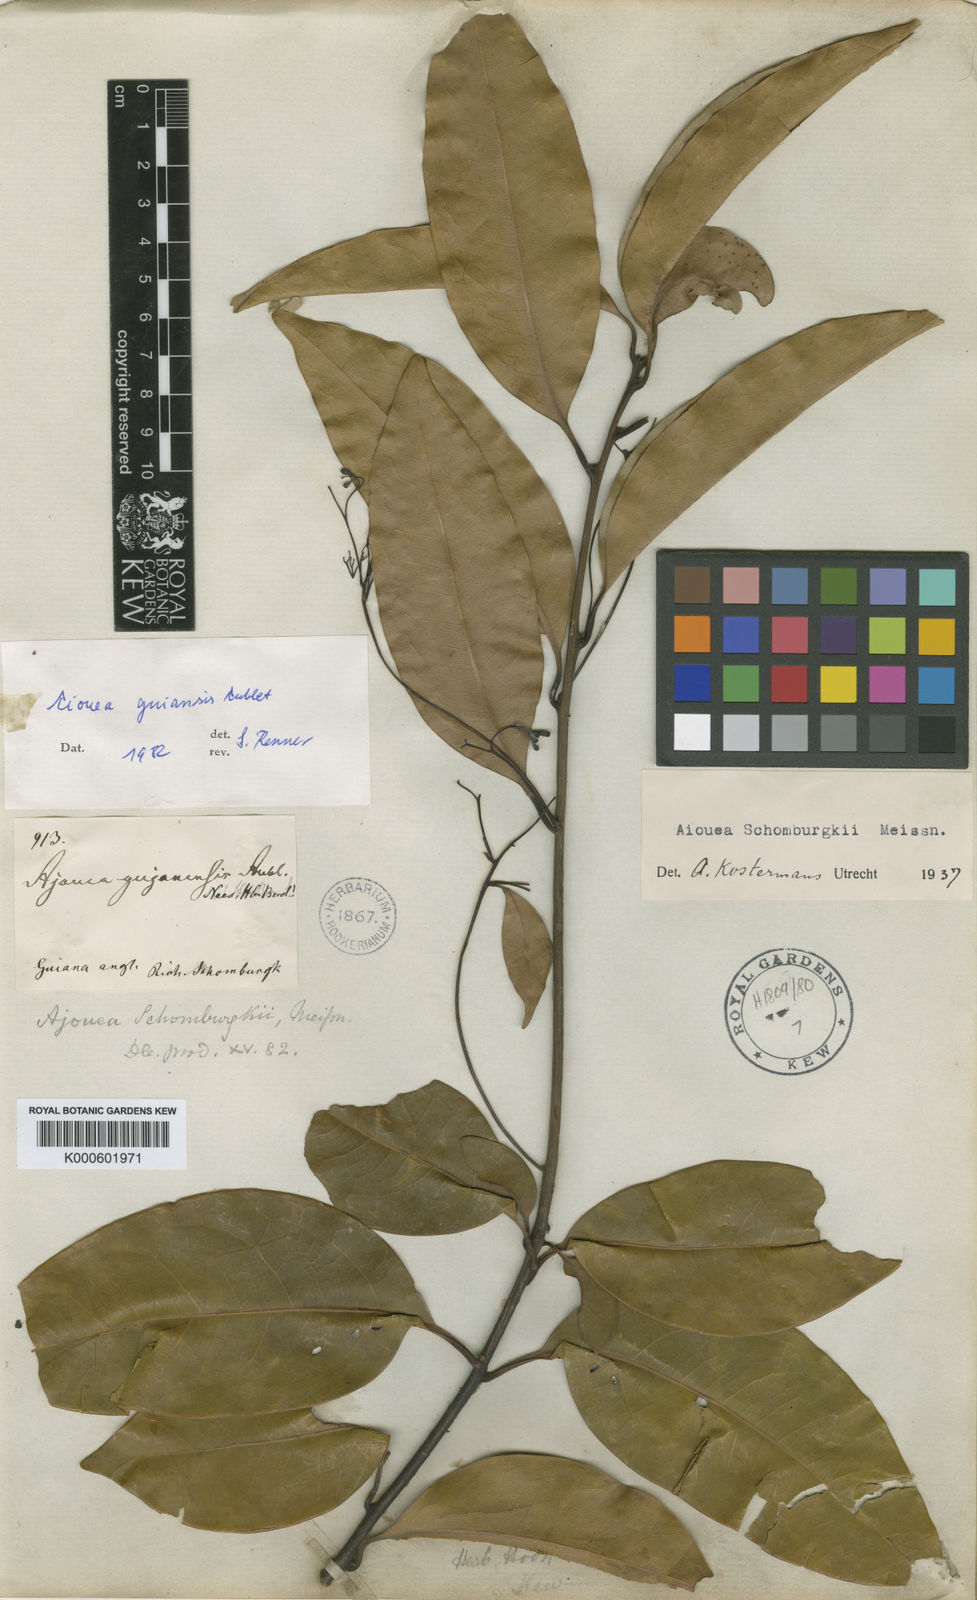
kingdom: Plantae
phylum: Tracheophyta
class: Magnoliopsida
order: Laurales
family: Lauraceae
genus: Aiouea
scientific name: Aiouea guianensis
